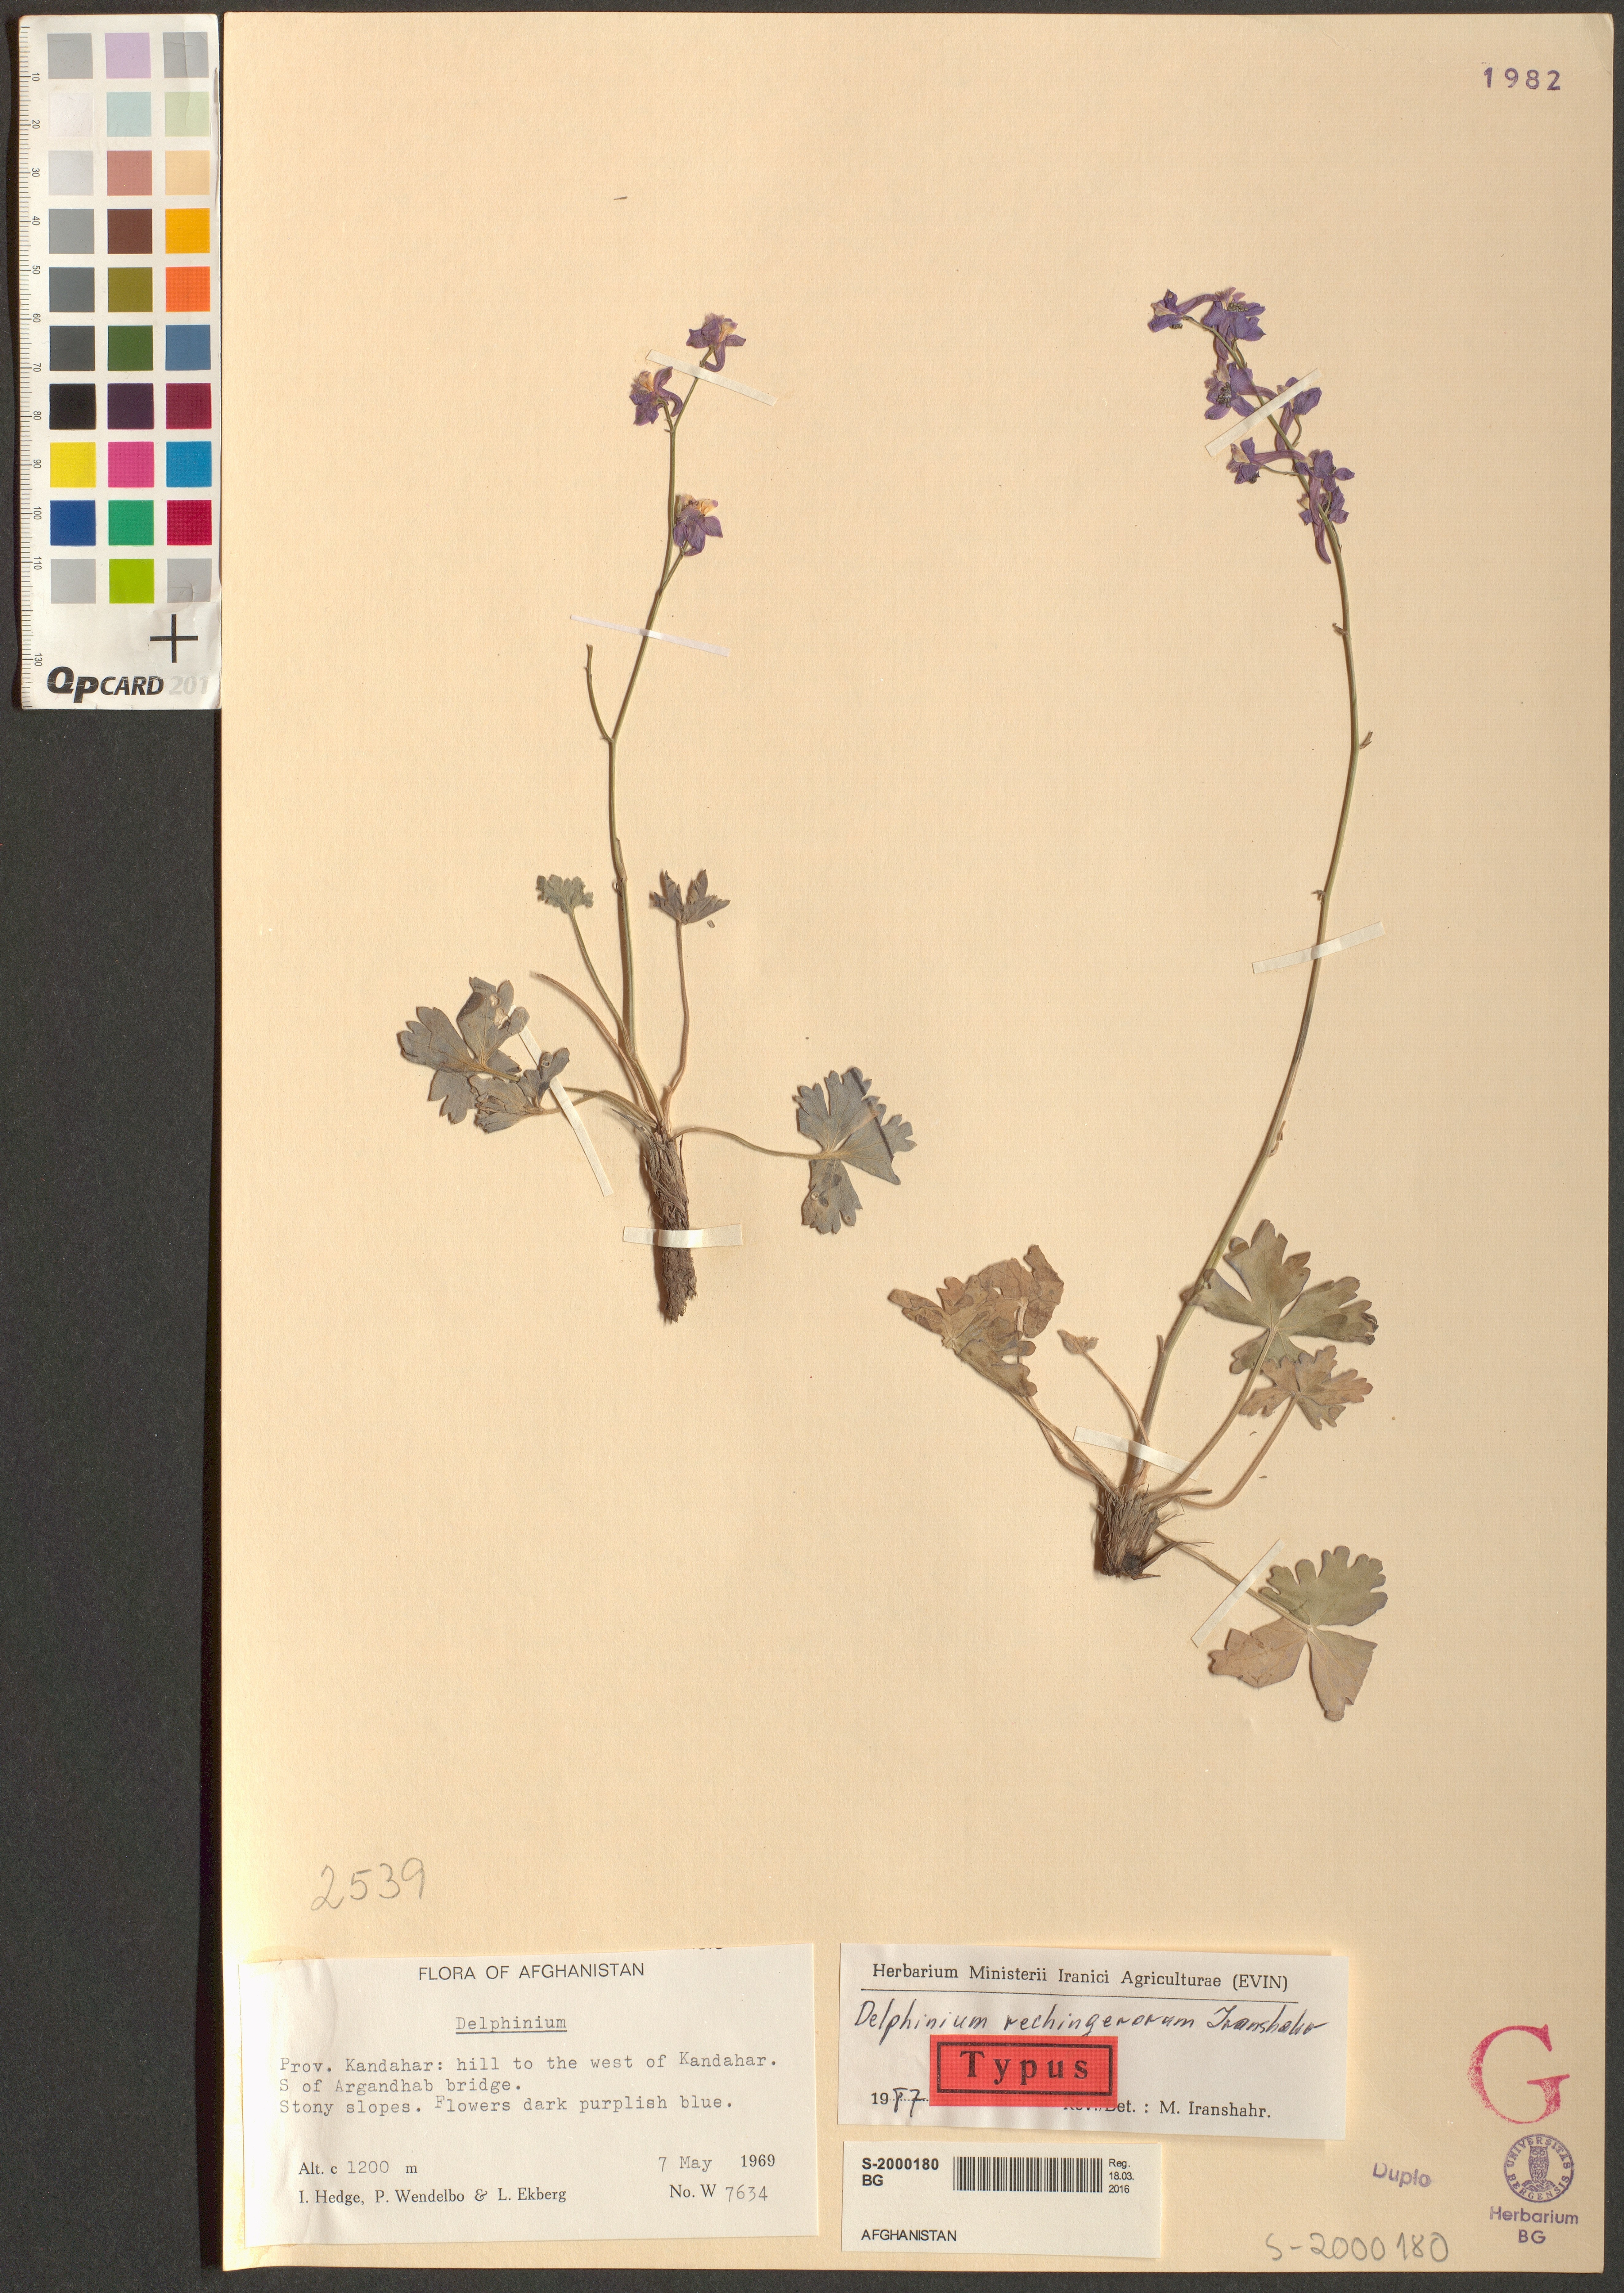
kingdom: Plantae
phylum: Tracheophyta
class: Magnoliopsida
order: Ranunculales
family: Ranunculaceae
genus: Delphinium
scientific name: Delphinium rechingerorum
